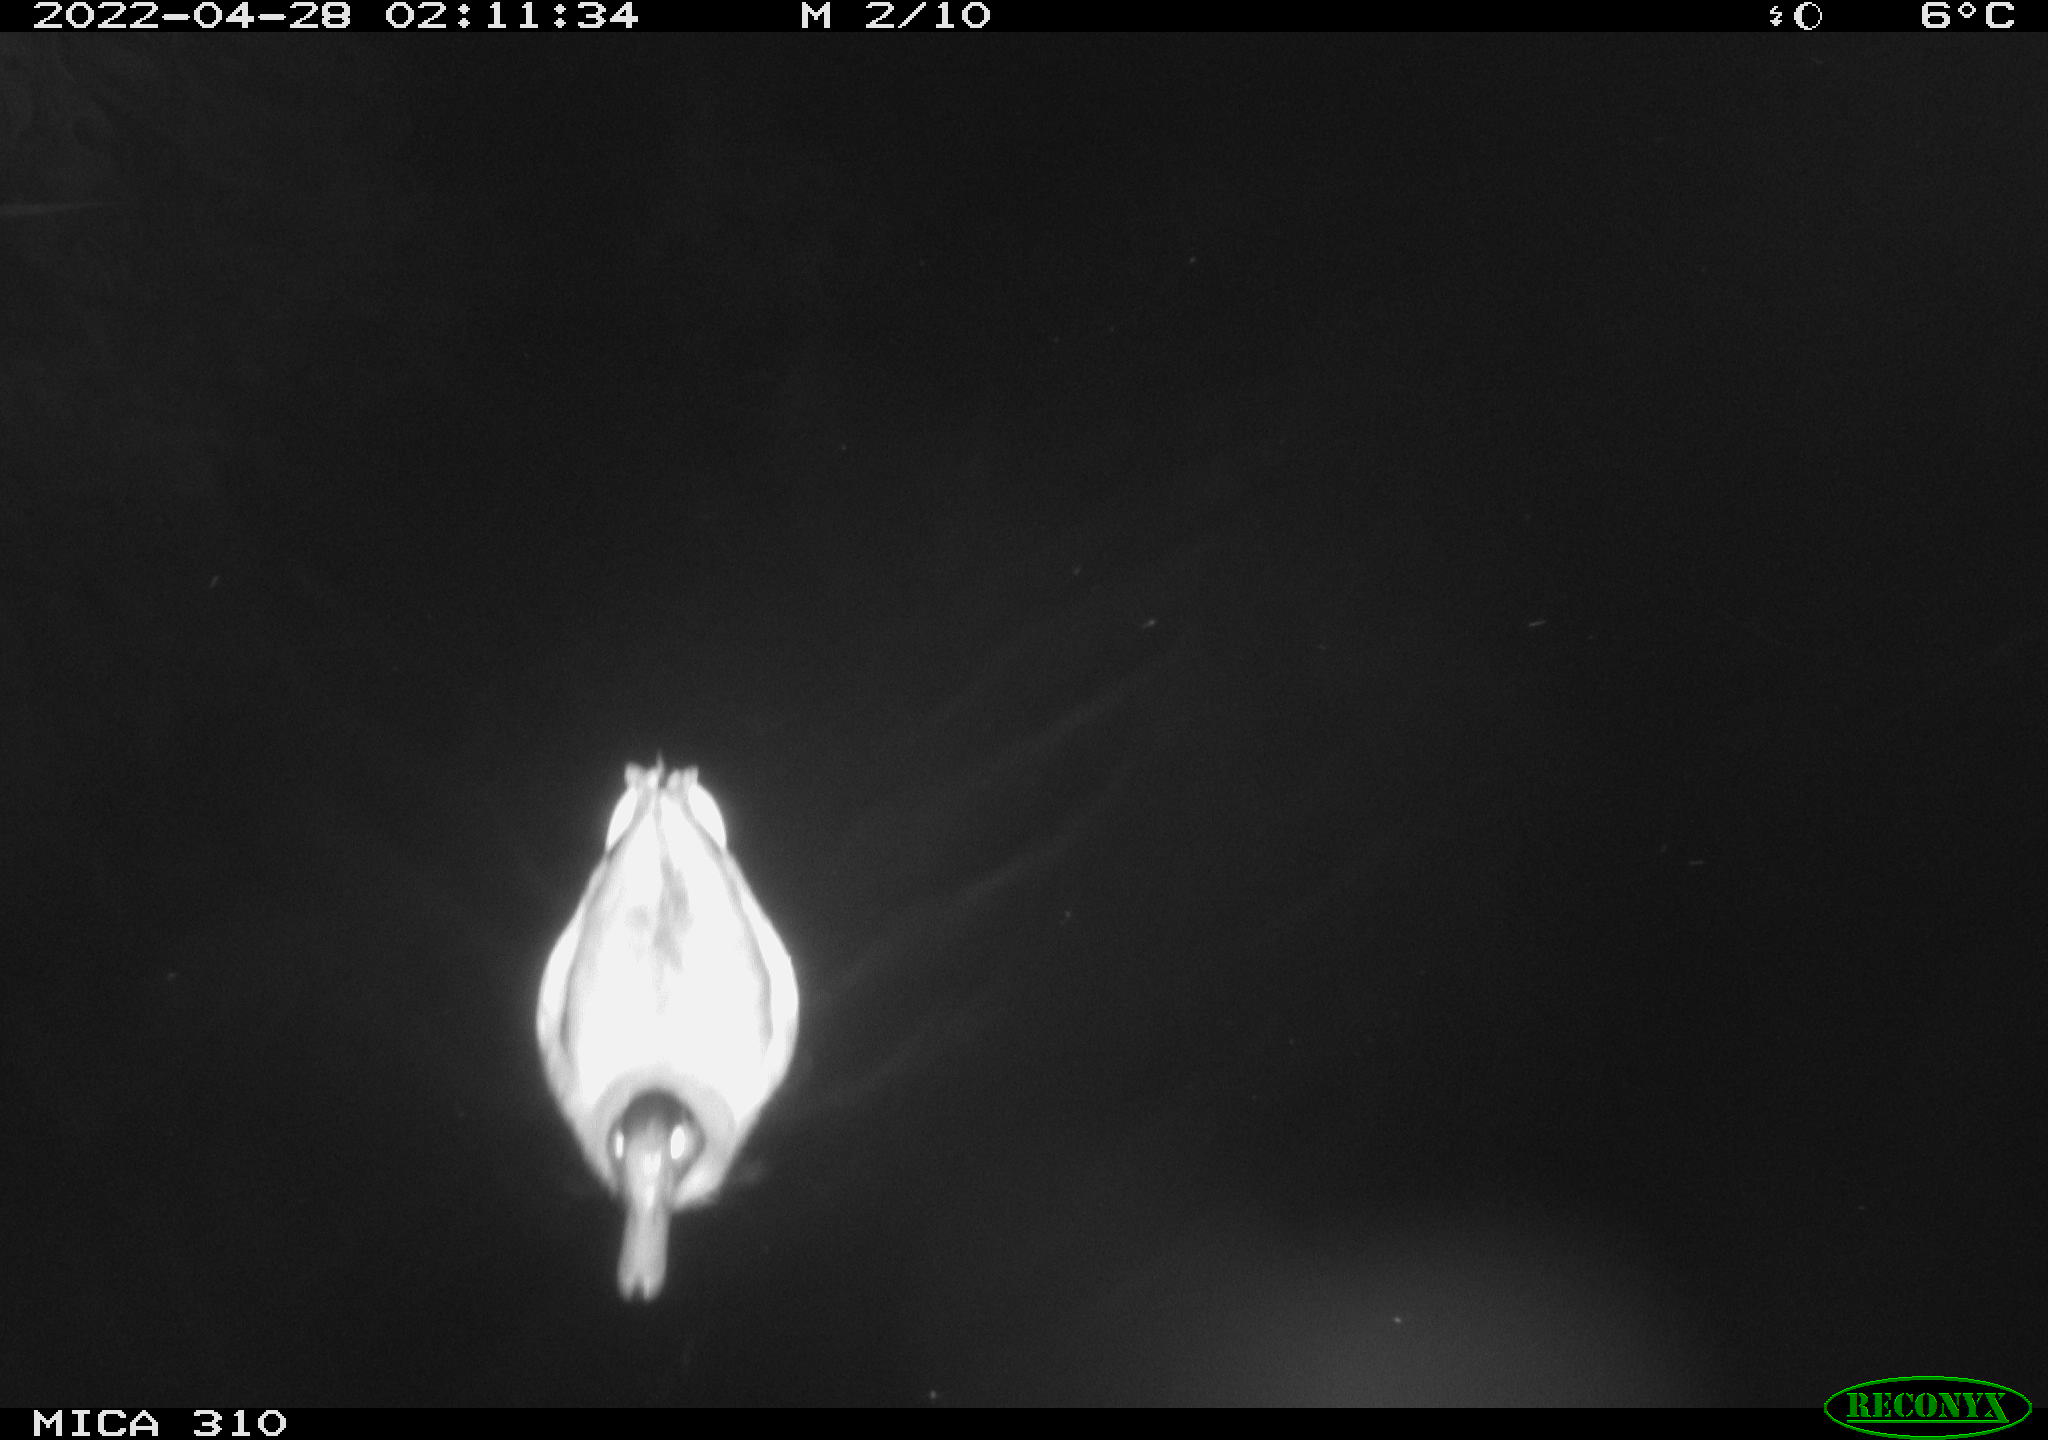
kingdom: Animalia
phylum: Chordata
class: Aves
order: Anseriformes
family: Anatidae
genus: Anas
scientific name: Anas platyrhynchos
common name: Mallard
